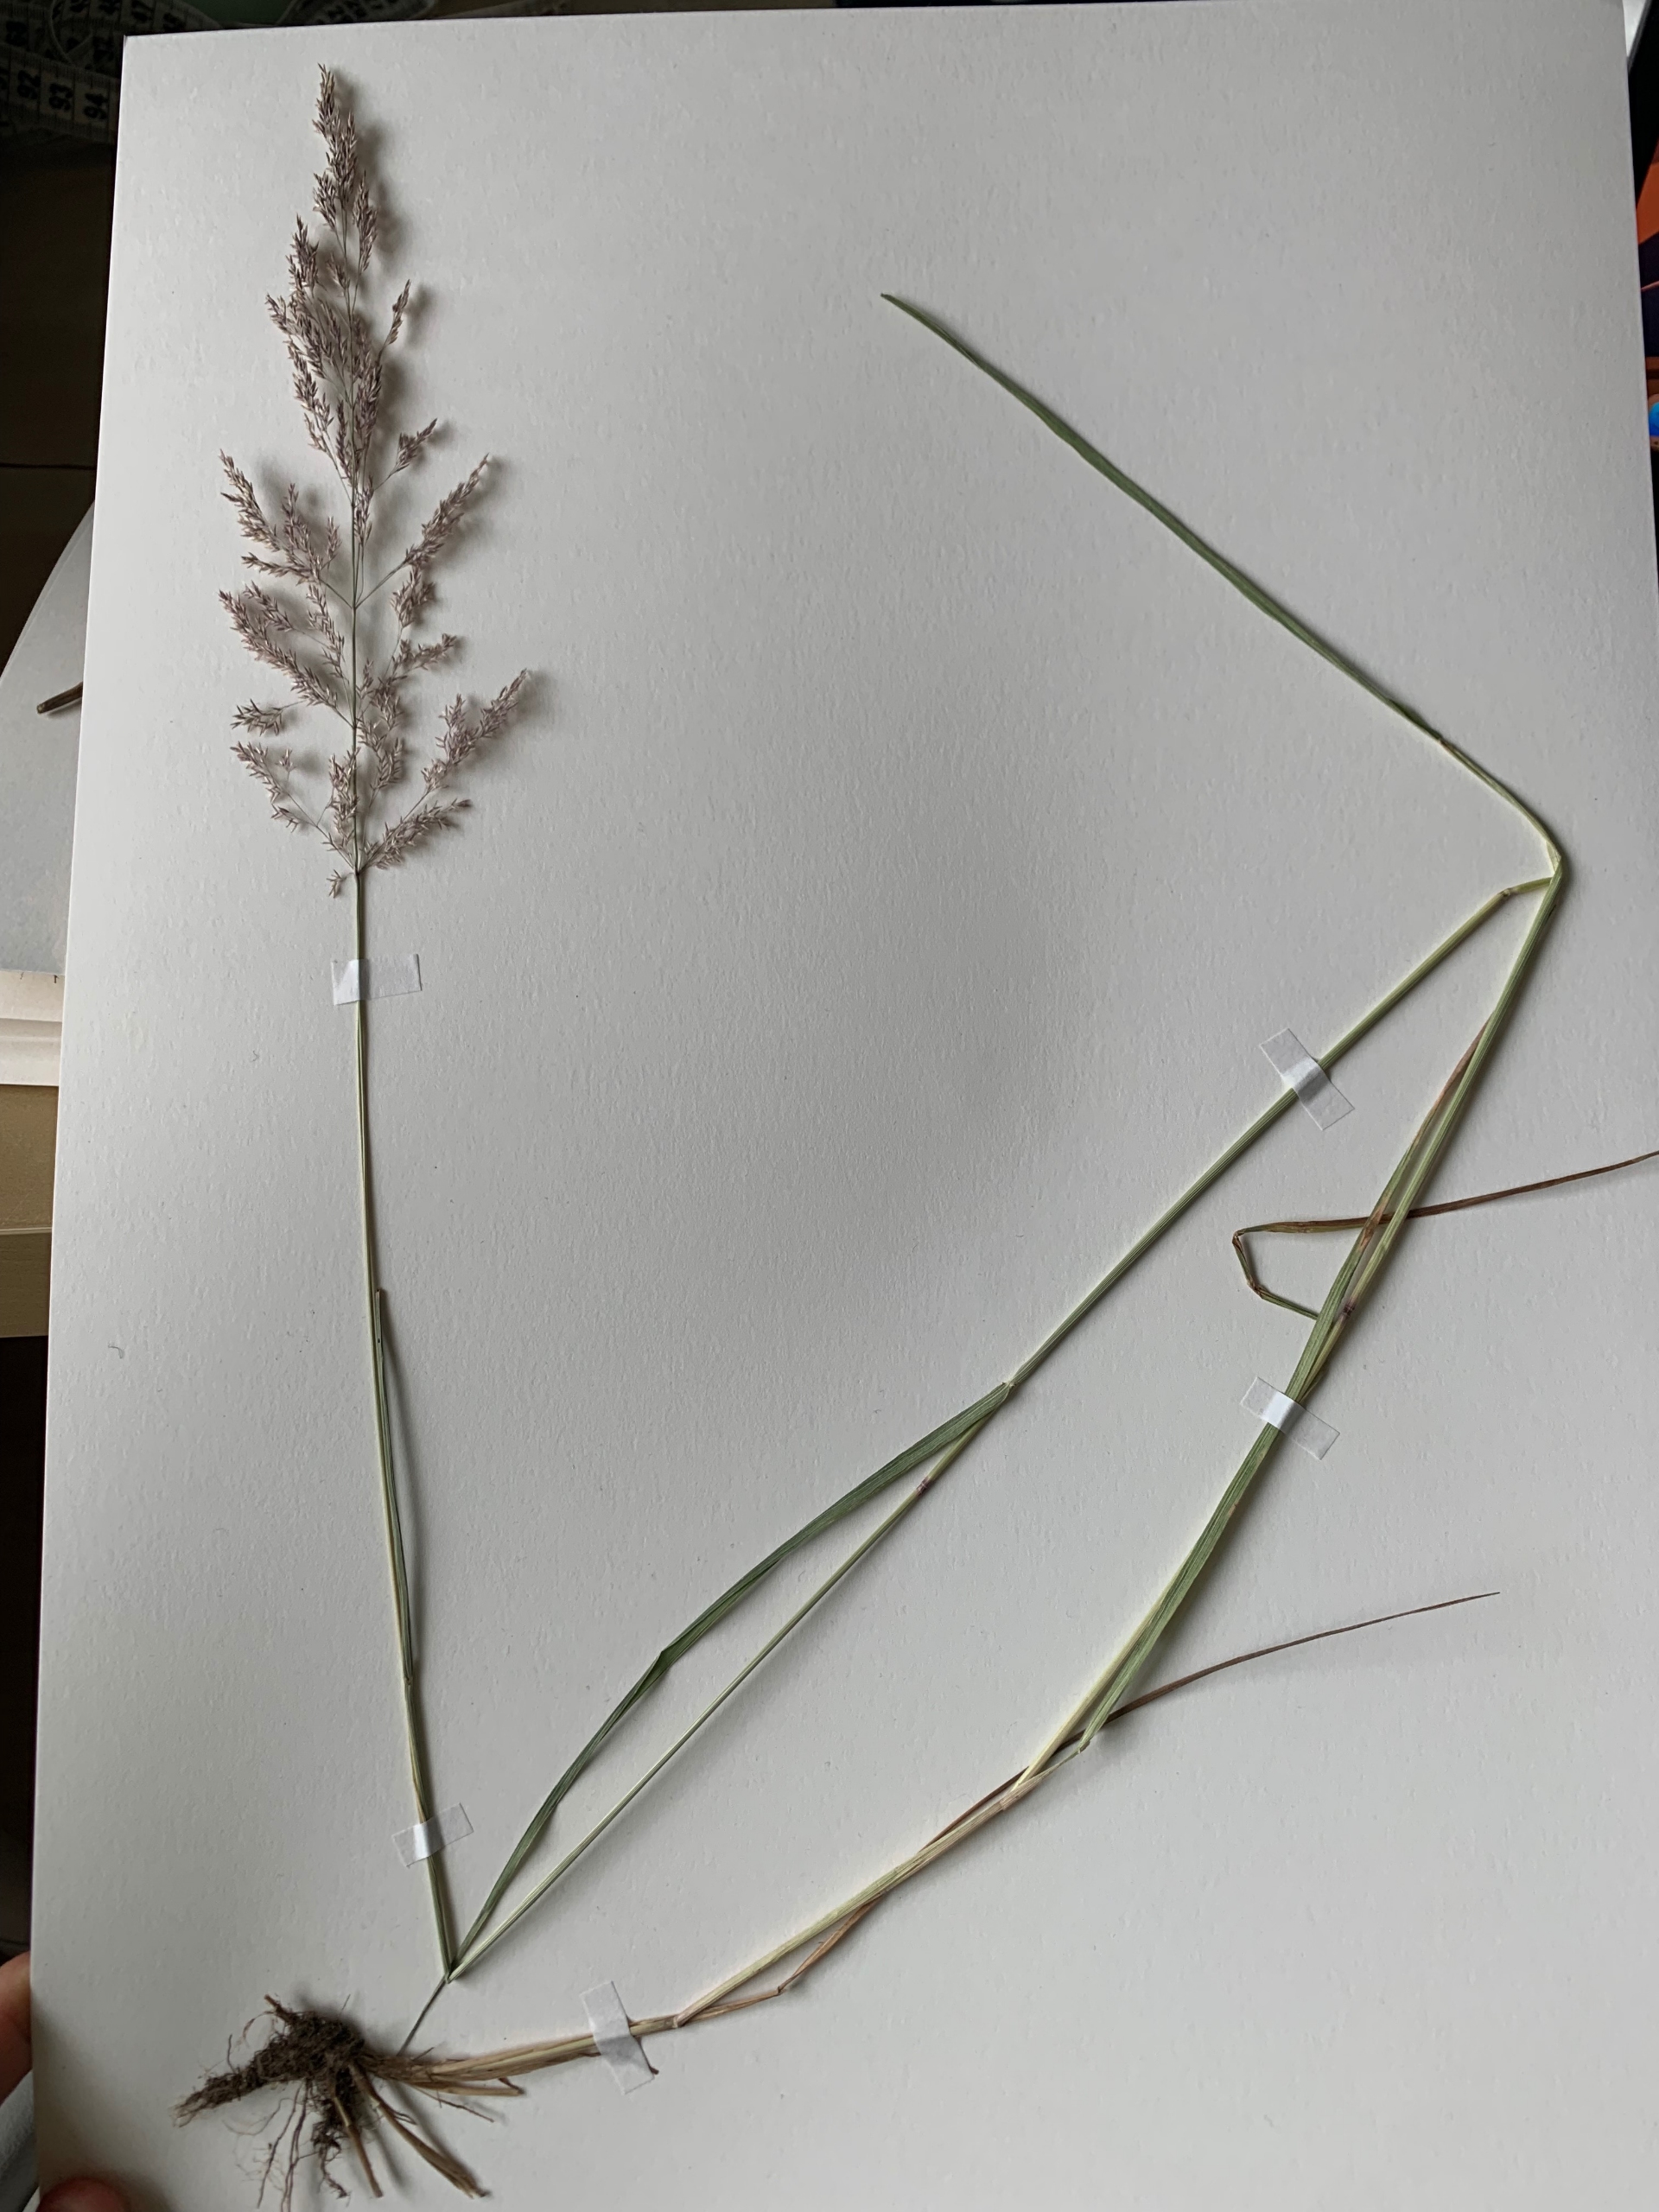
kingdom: Plantae
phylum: Tracheophyta
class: Liliopsida
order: Poales
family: Poaceae
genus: Agrostis
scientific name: Agrostis gigantea
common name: Stortoppet hvene
